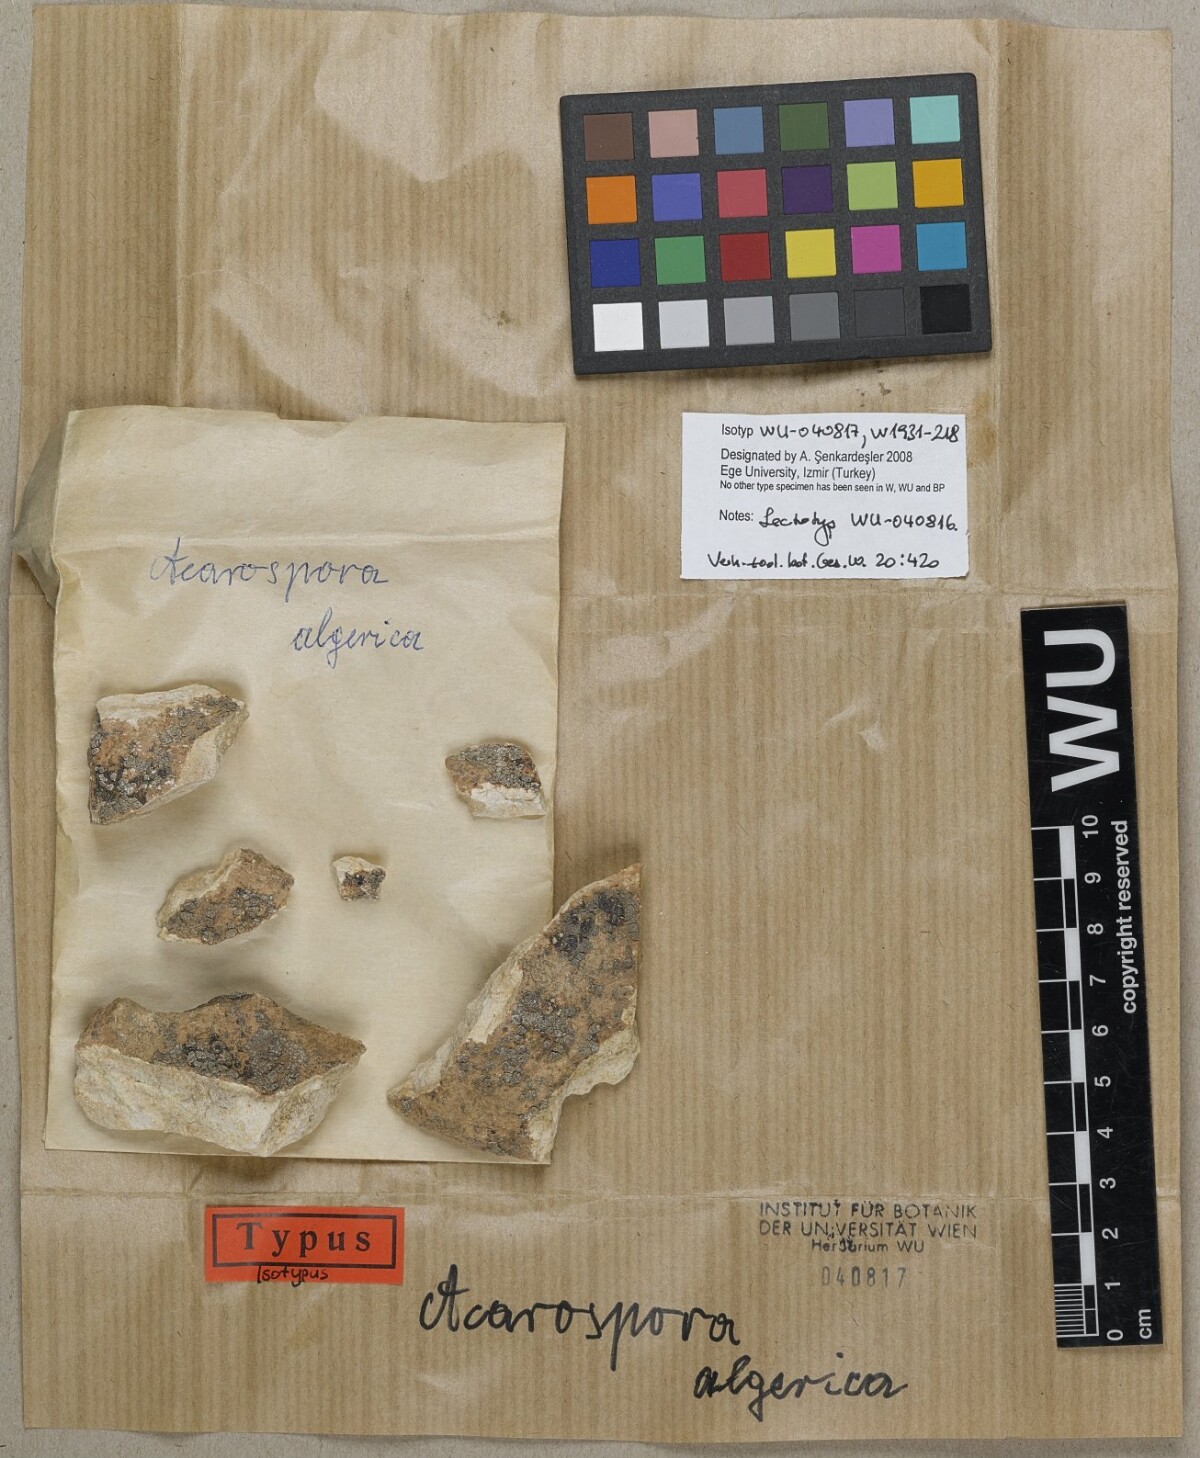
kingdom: Fungi
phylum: Ascomycota
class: Lecanoromycetes
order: Acarosporales
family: Acarosporaceae
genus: Acarospora
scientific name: Acarospora glaucocarpa
